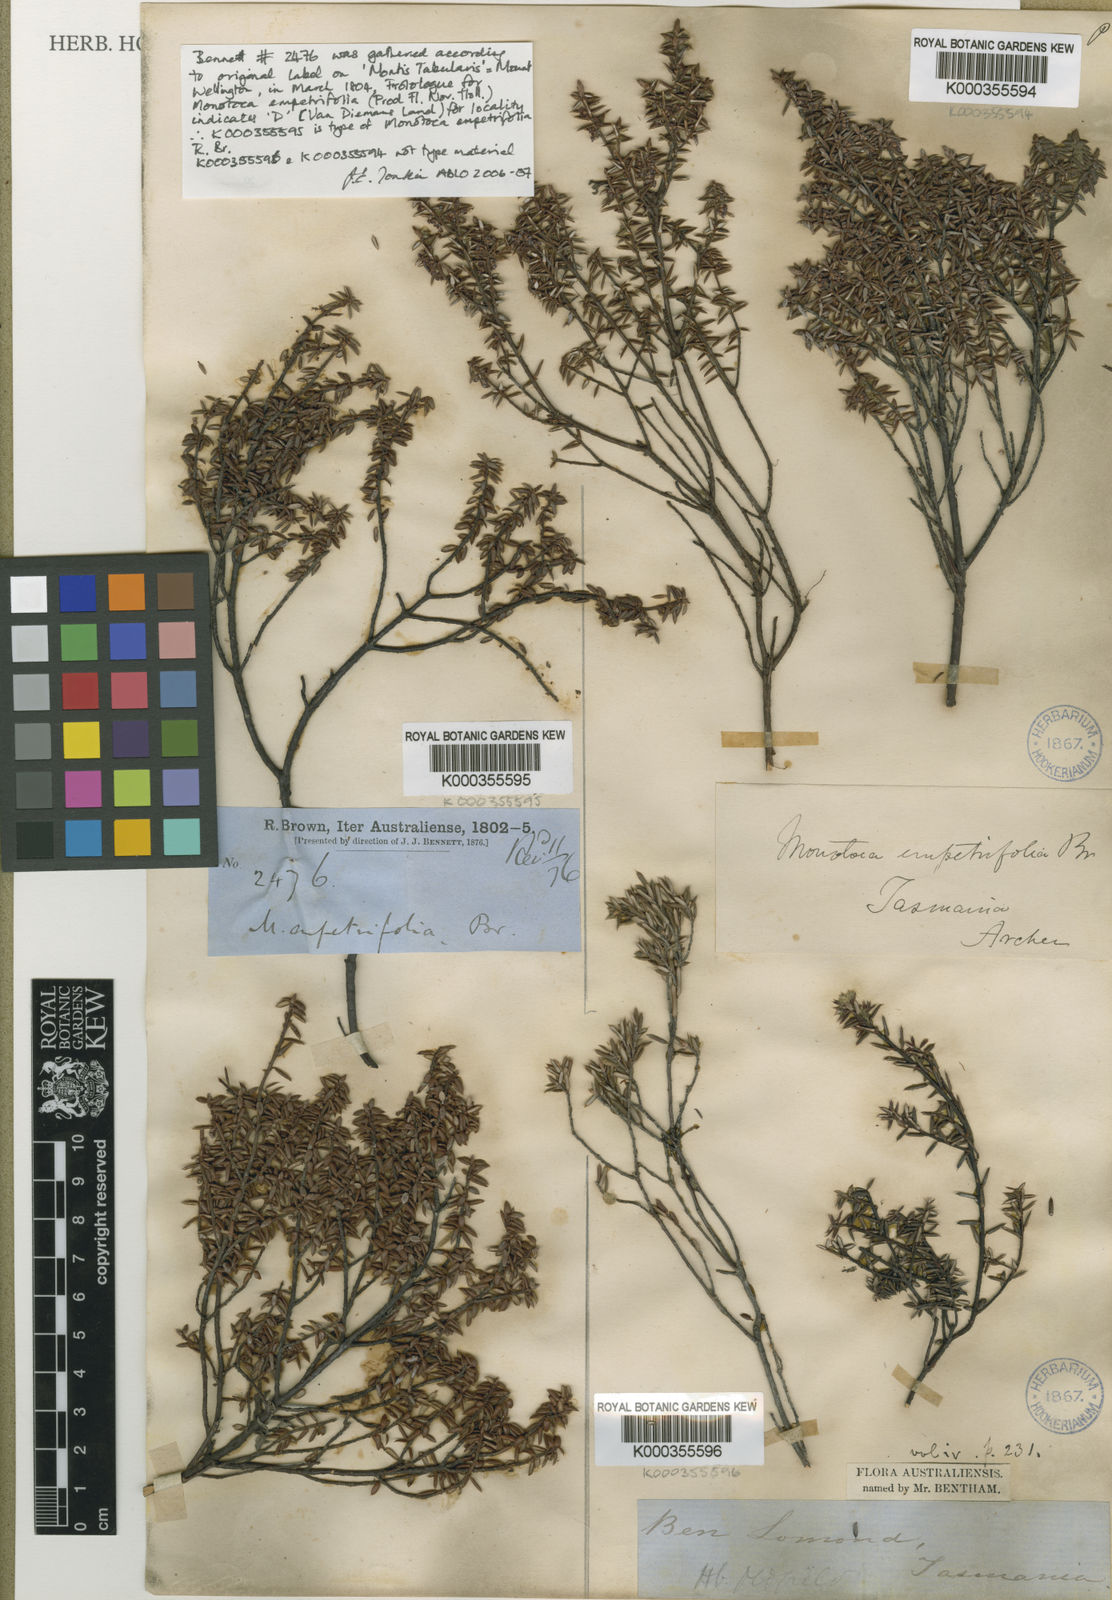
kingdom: Plantae
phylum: Tracheophyta
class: Magnoliopsida
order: Ericales
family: Ericaceae
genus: Monotoca
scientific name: Monotoca empetrifolia
